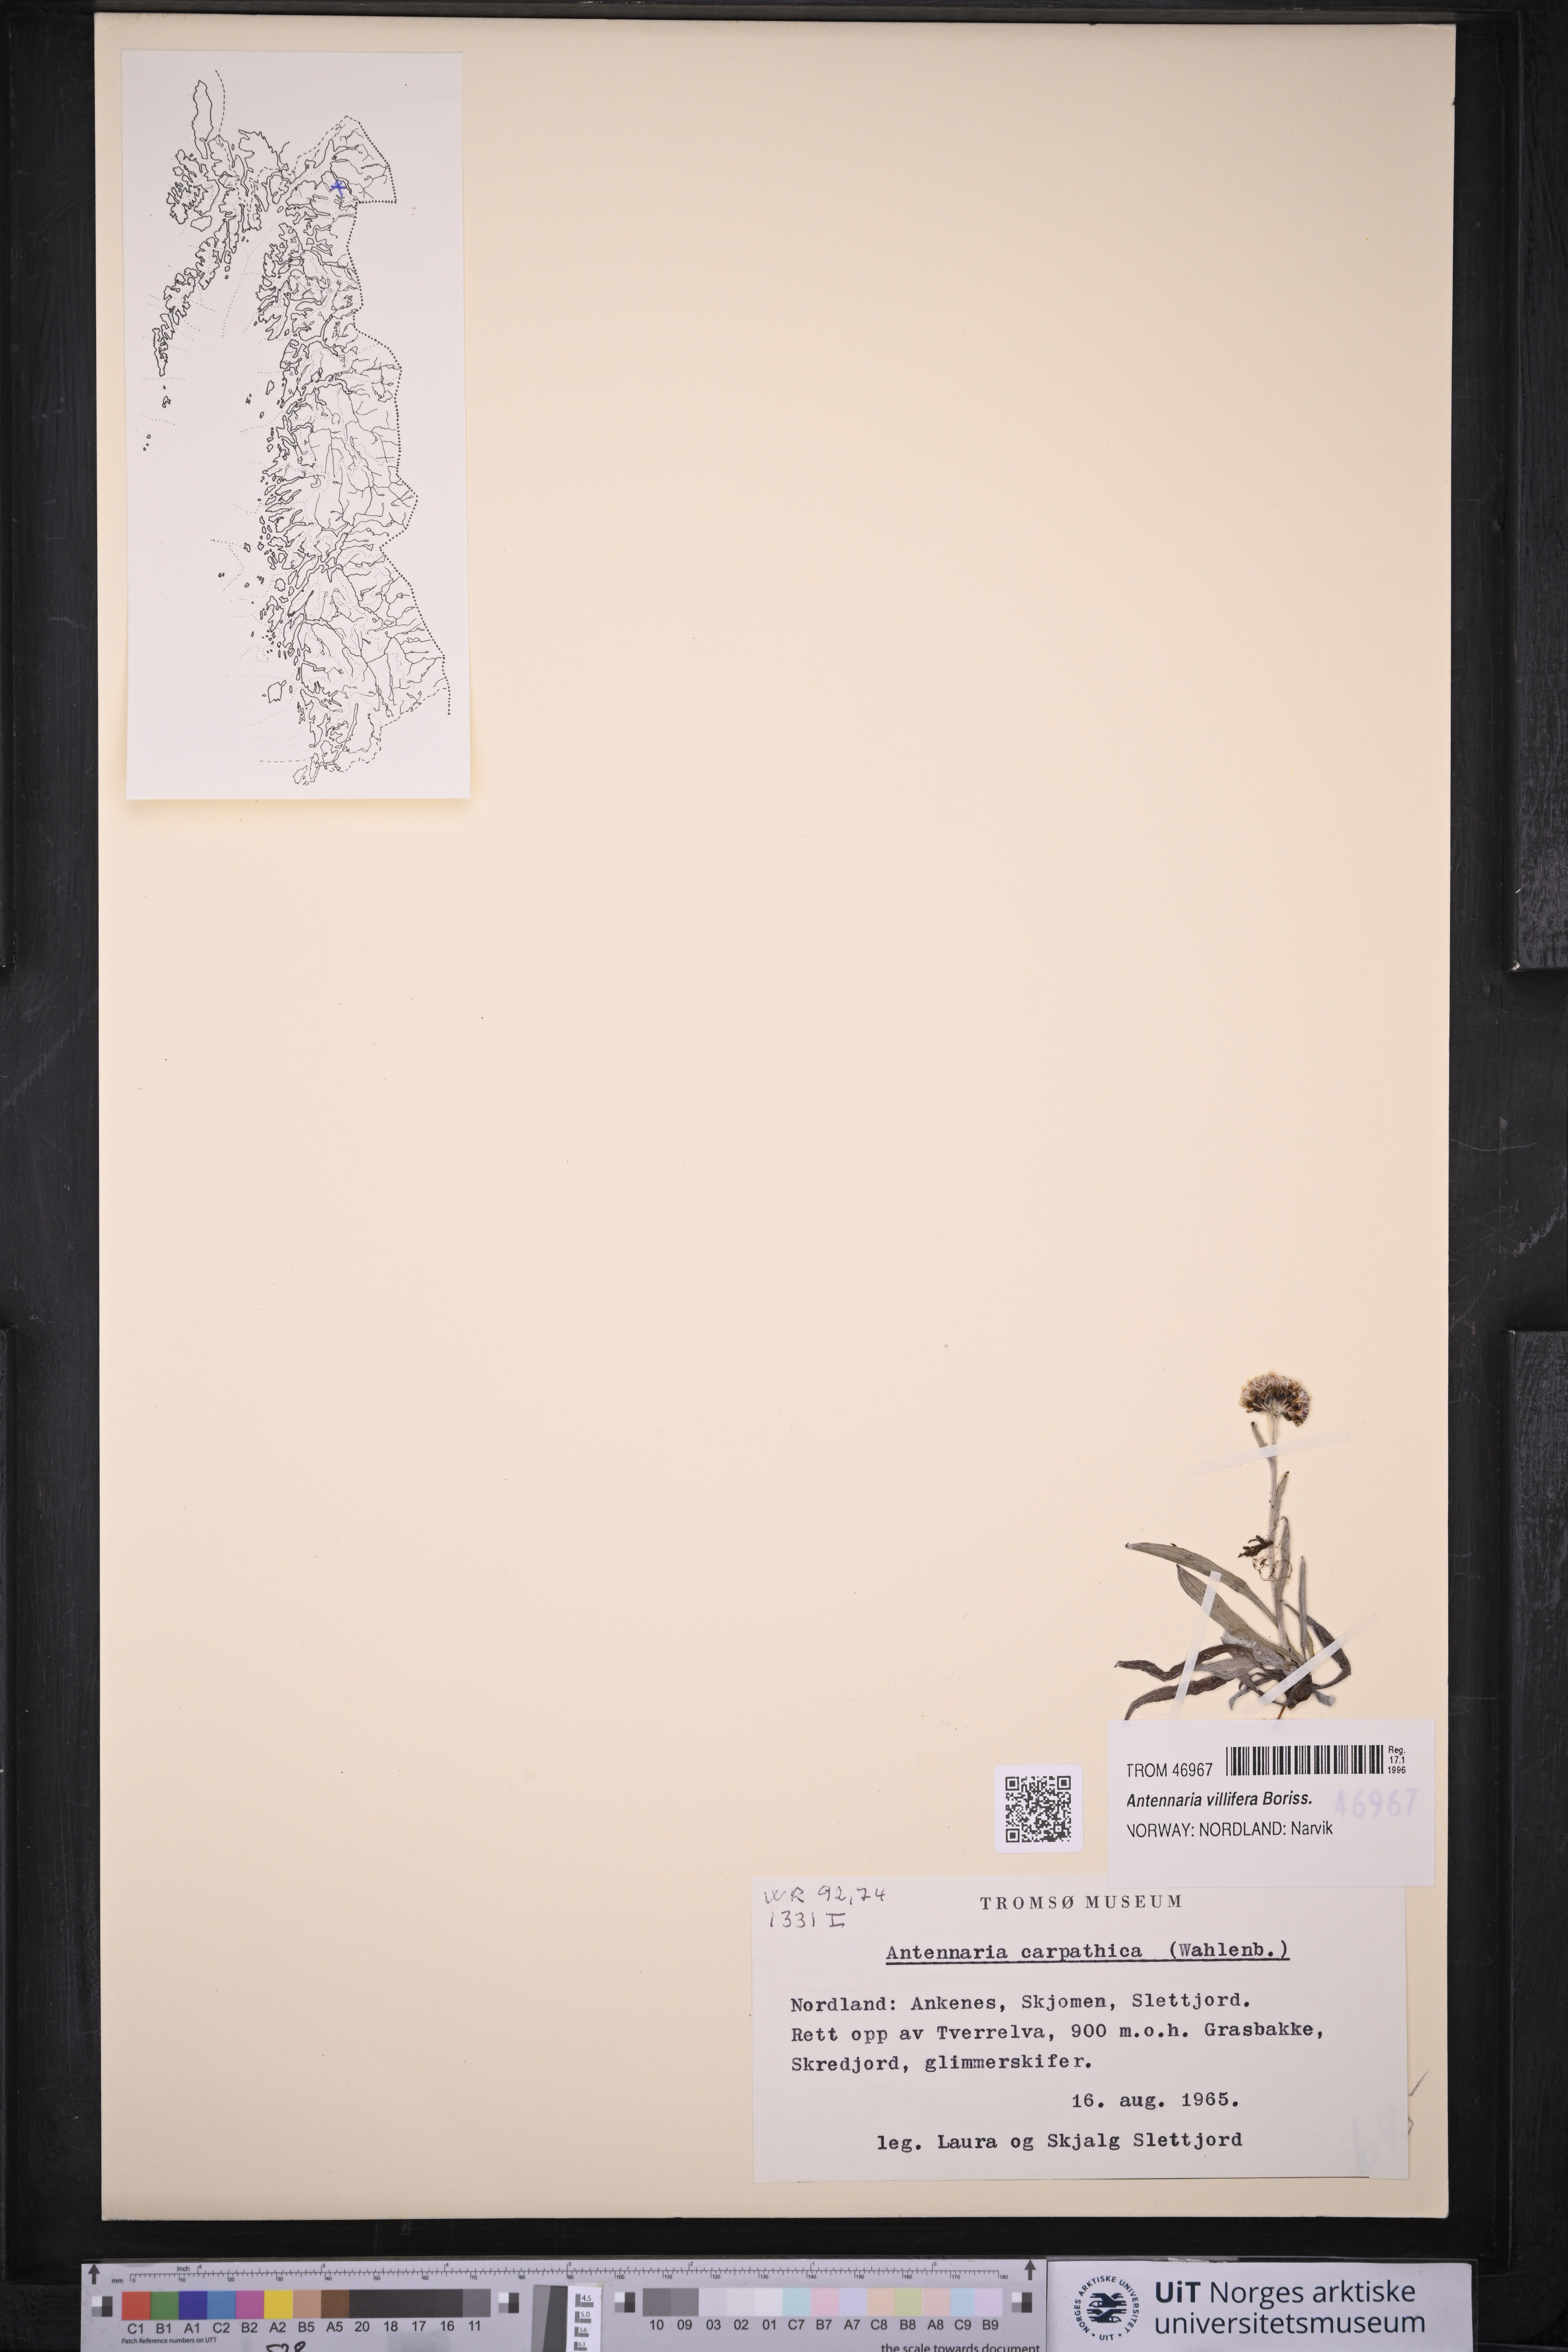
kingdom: Plantae
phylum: Tracheophyta
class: Magnoliopsida
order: Asterales
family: Asteraceae
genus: Antennaria
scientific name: Antennaria lanata
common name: Woolly pussytoes
